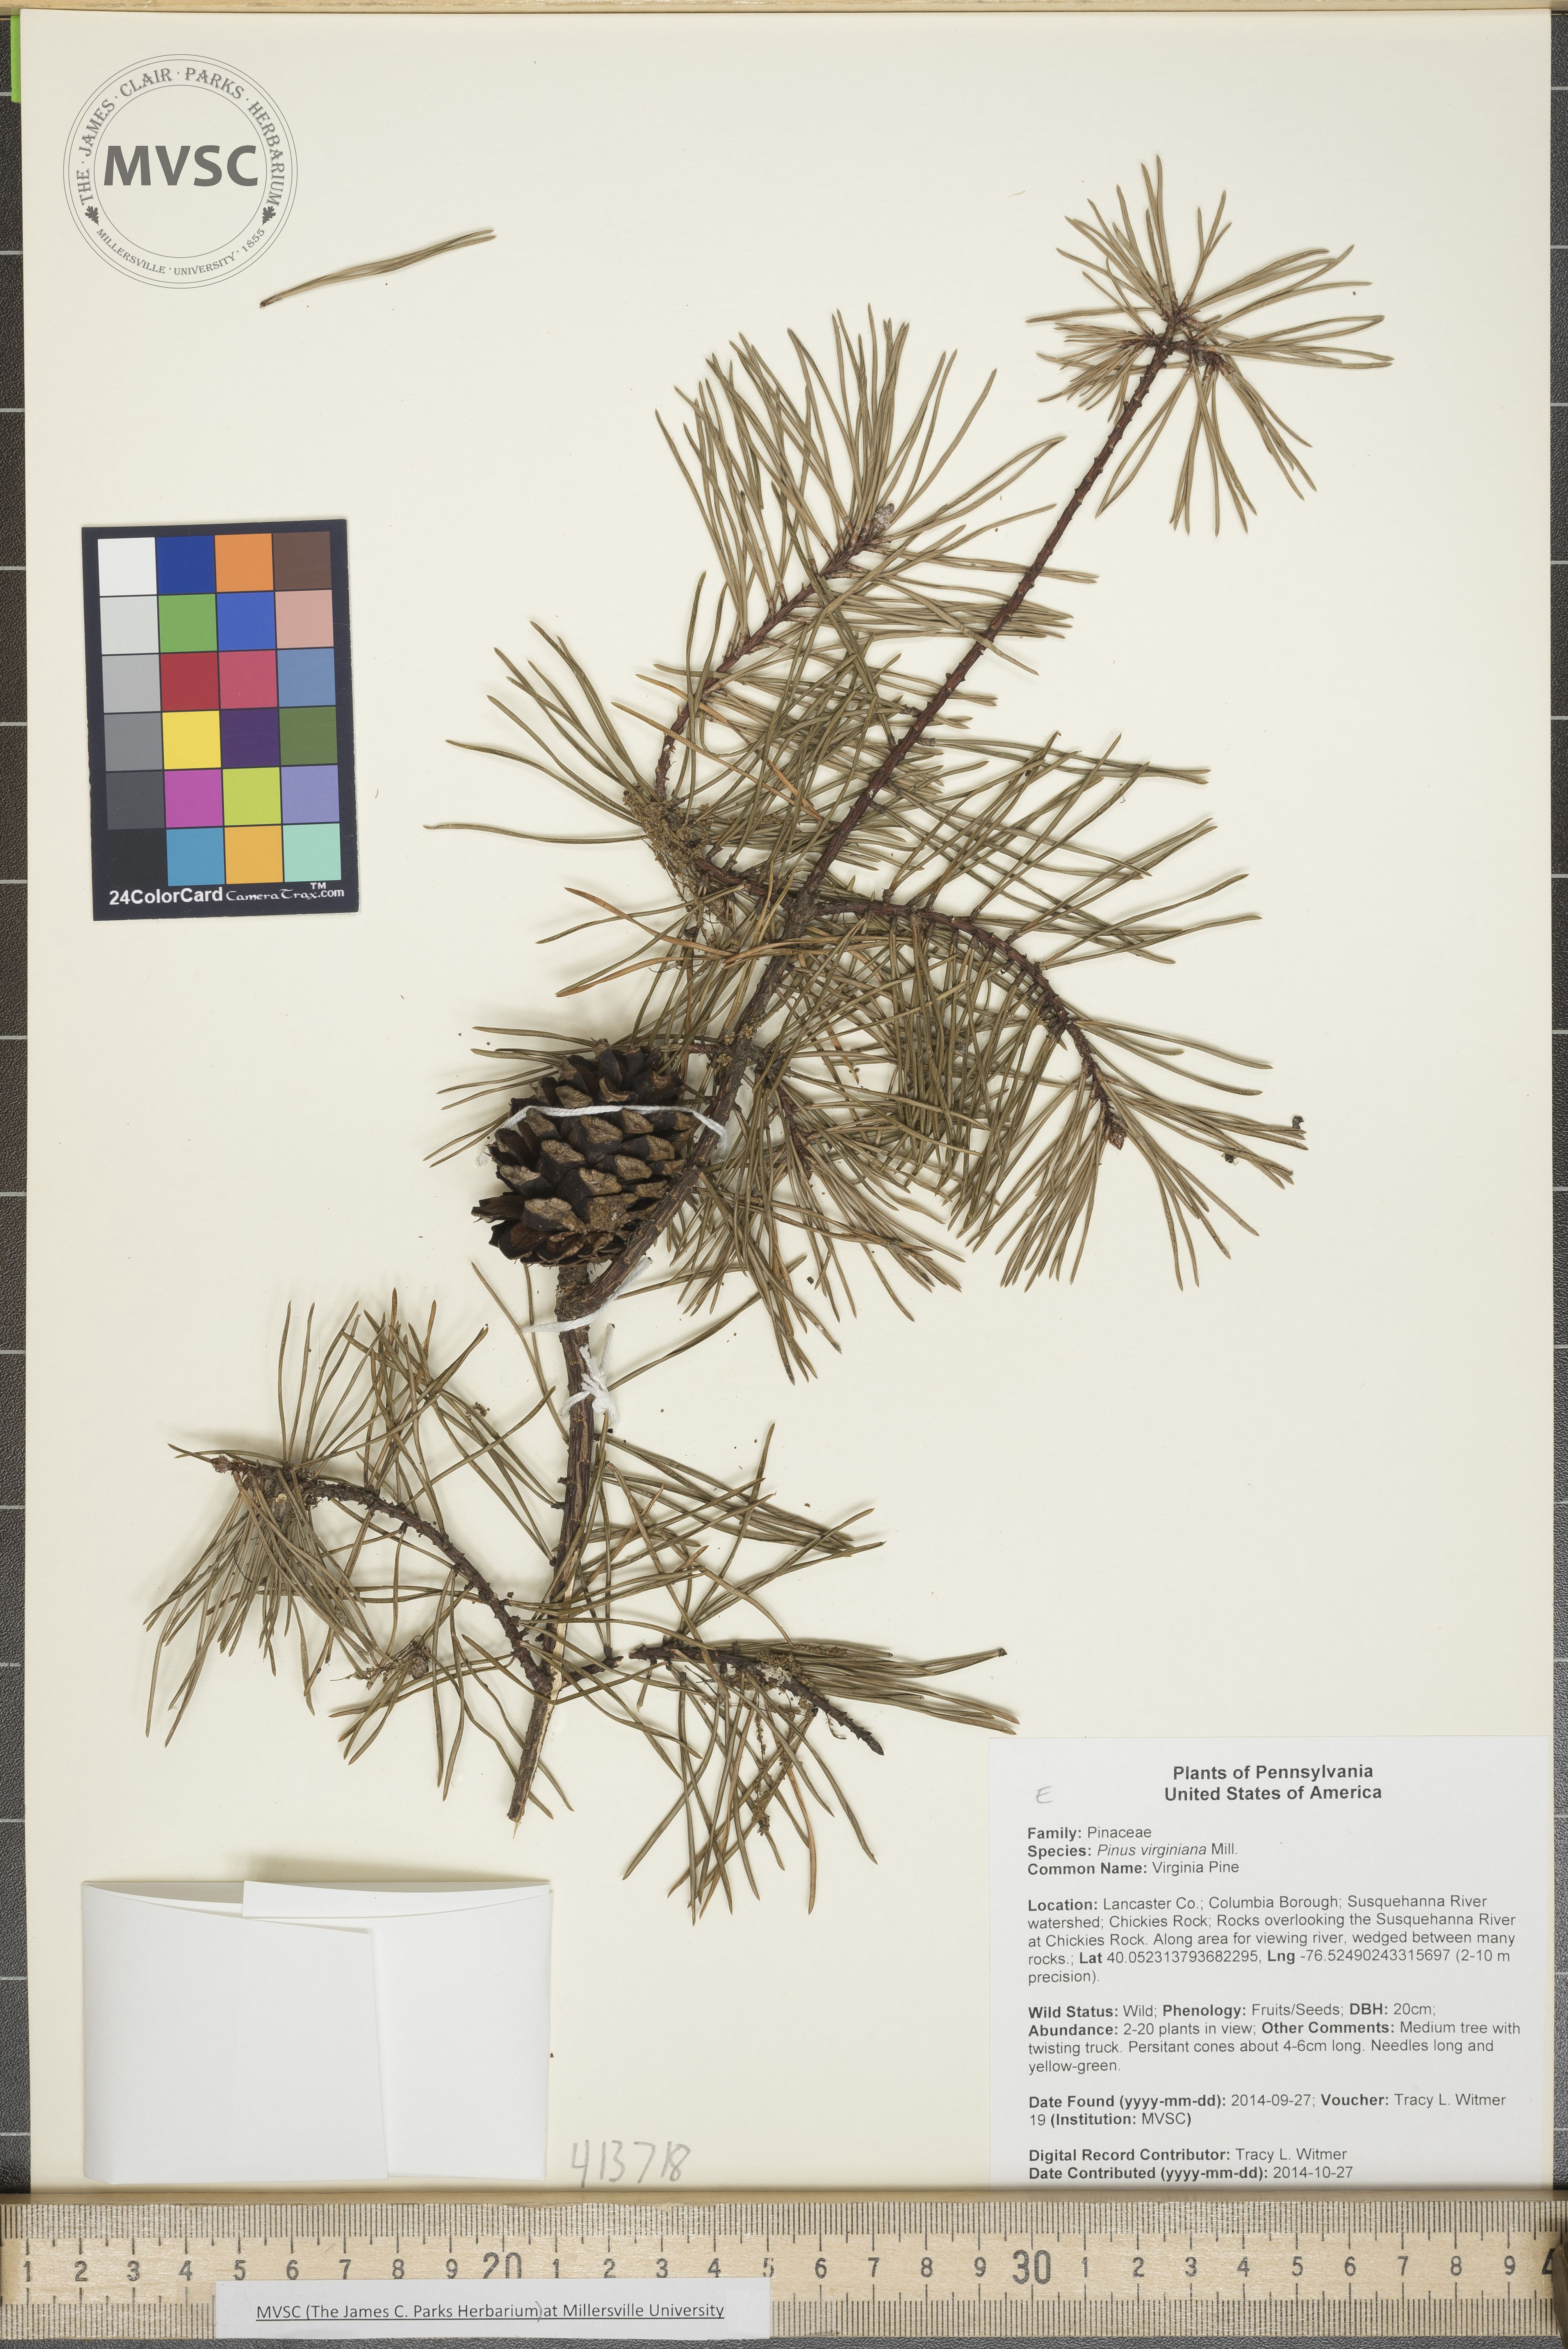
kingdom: Plantae
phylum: Tracheophyta
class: Pinopsida
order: Pinales
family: Pinaceae
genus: Pinus
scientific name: Pinus virginiana
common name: Virginia Pine
